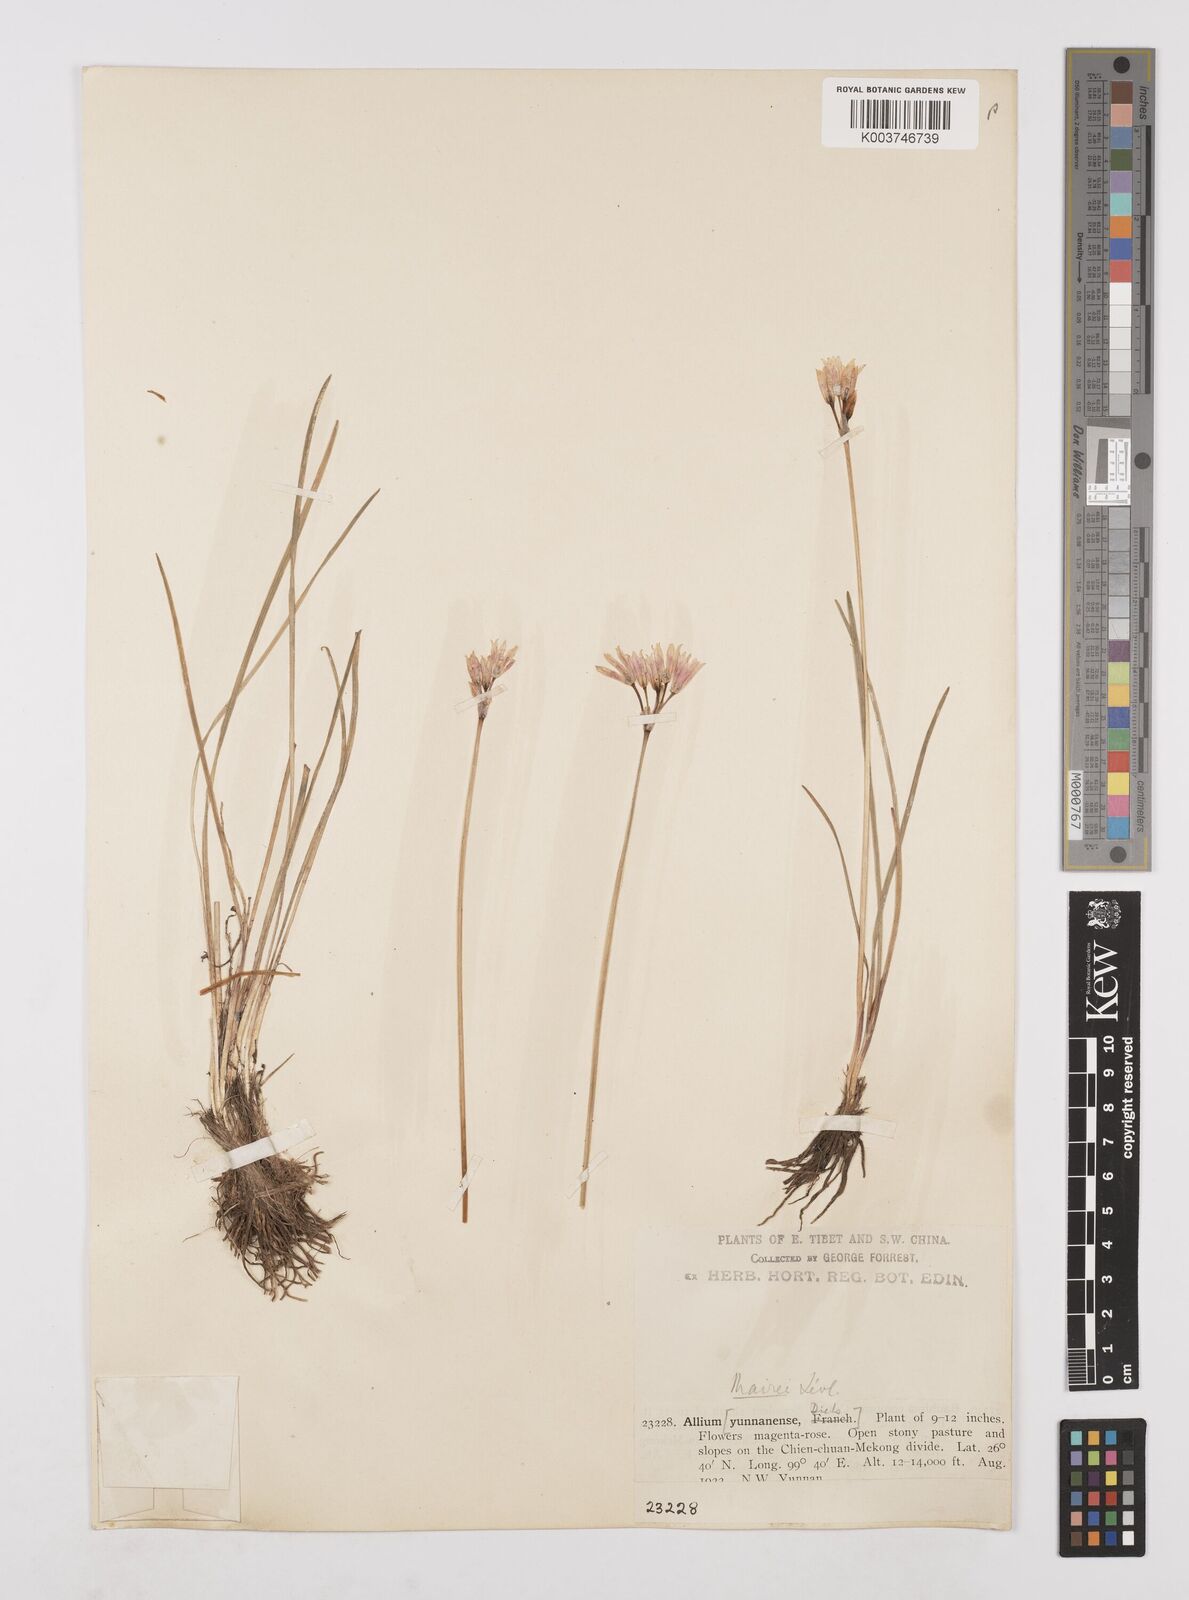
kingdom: Plantae
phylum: Tracheophyta
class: Liliopsida
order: Asparagales
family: Amaryllidaceae
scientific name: Amaryllidaceae
